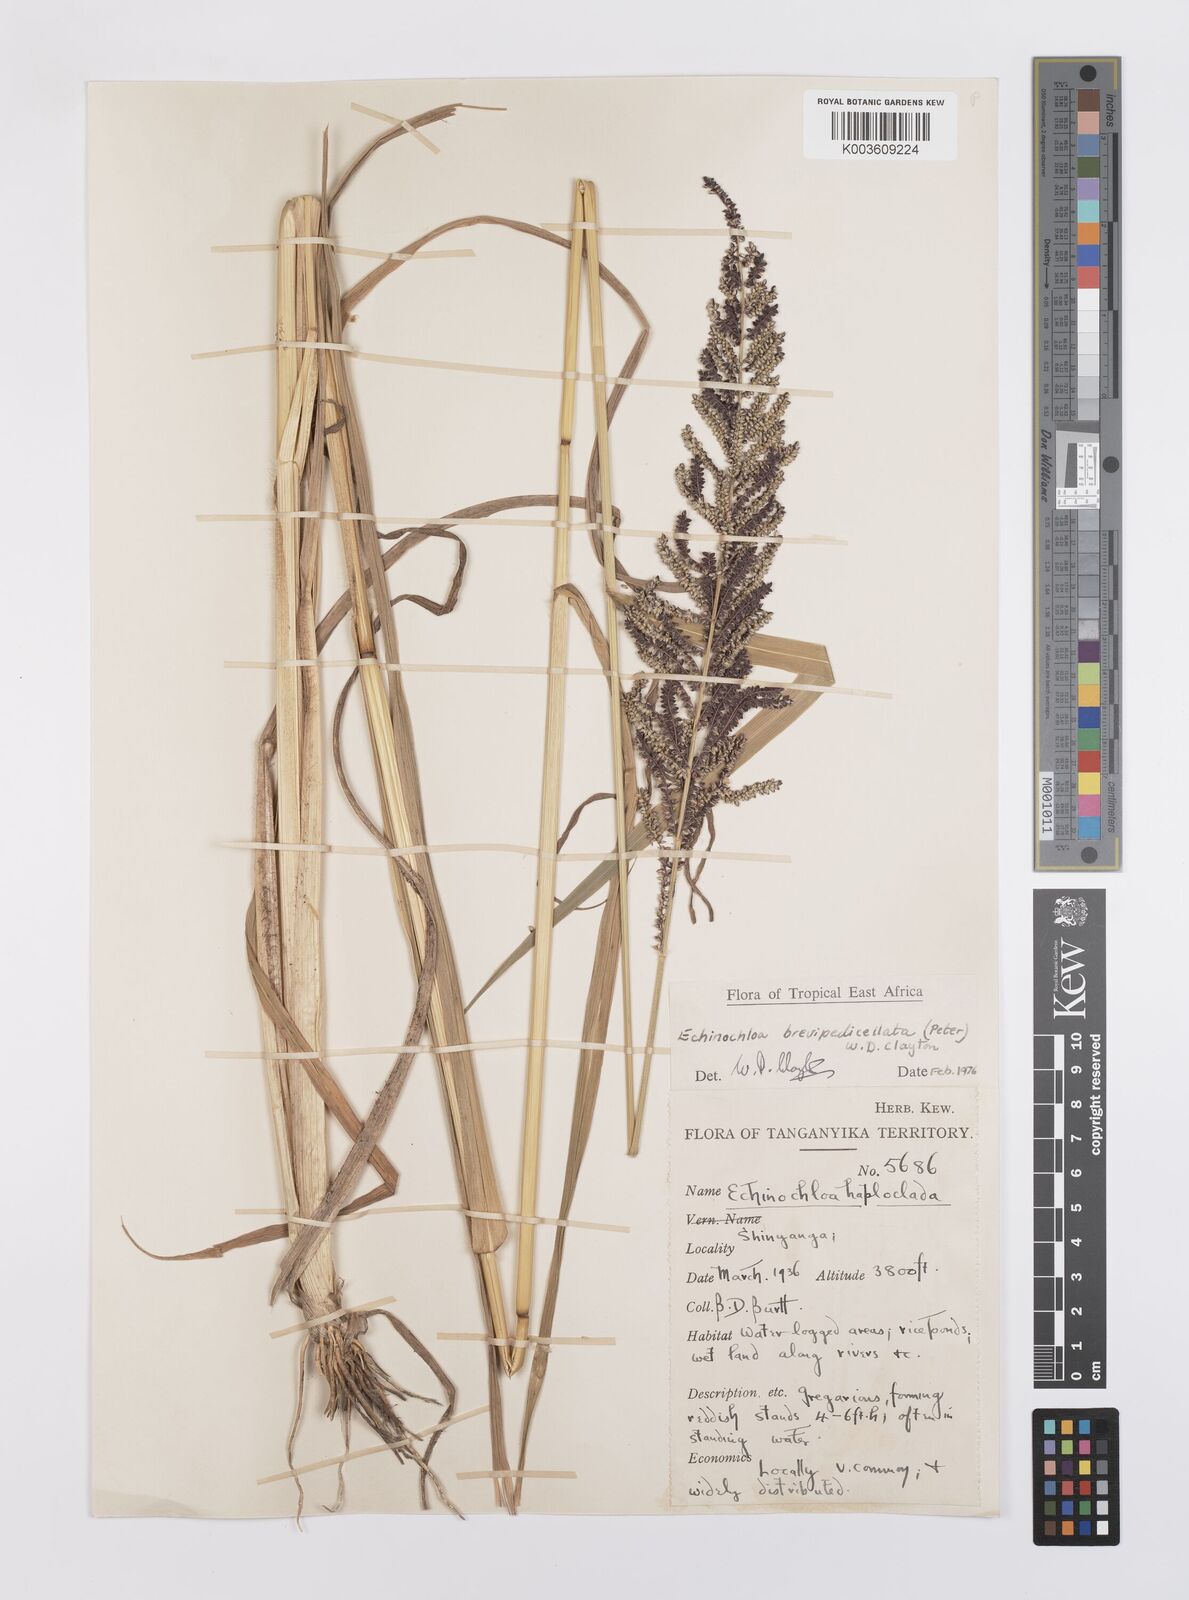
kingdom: Plantae
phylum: Tracheophyta
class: Liliopsida
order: Poales
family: Poaceae
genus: Echinochloa
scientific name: Echinochloa brevipedicellata
